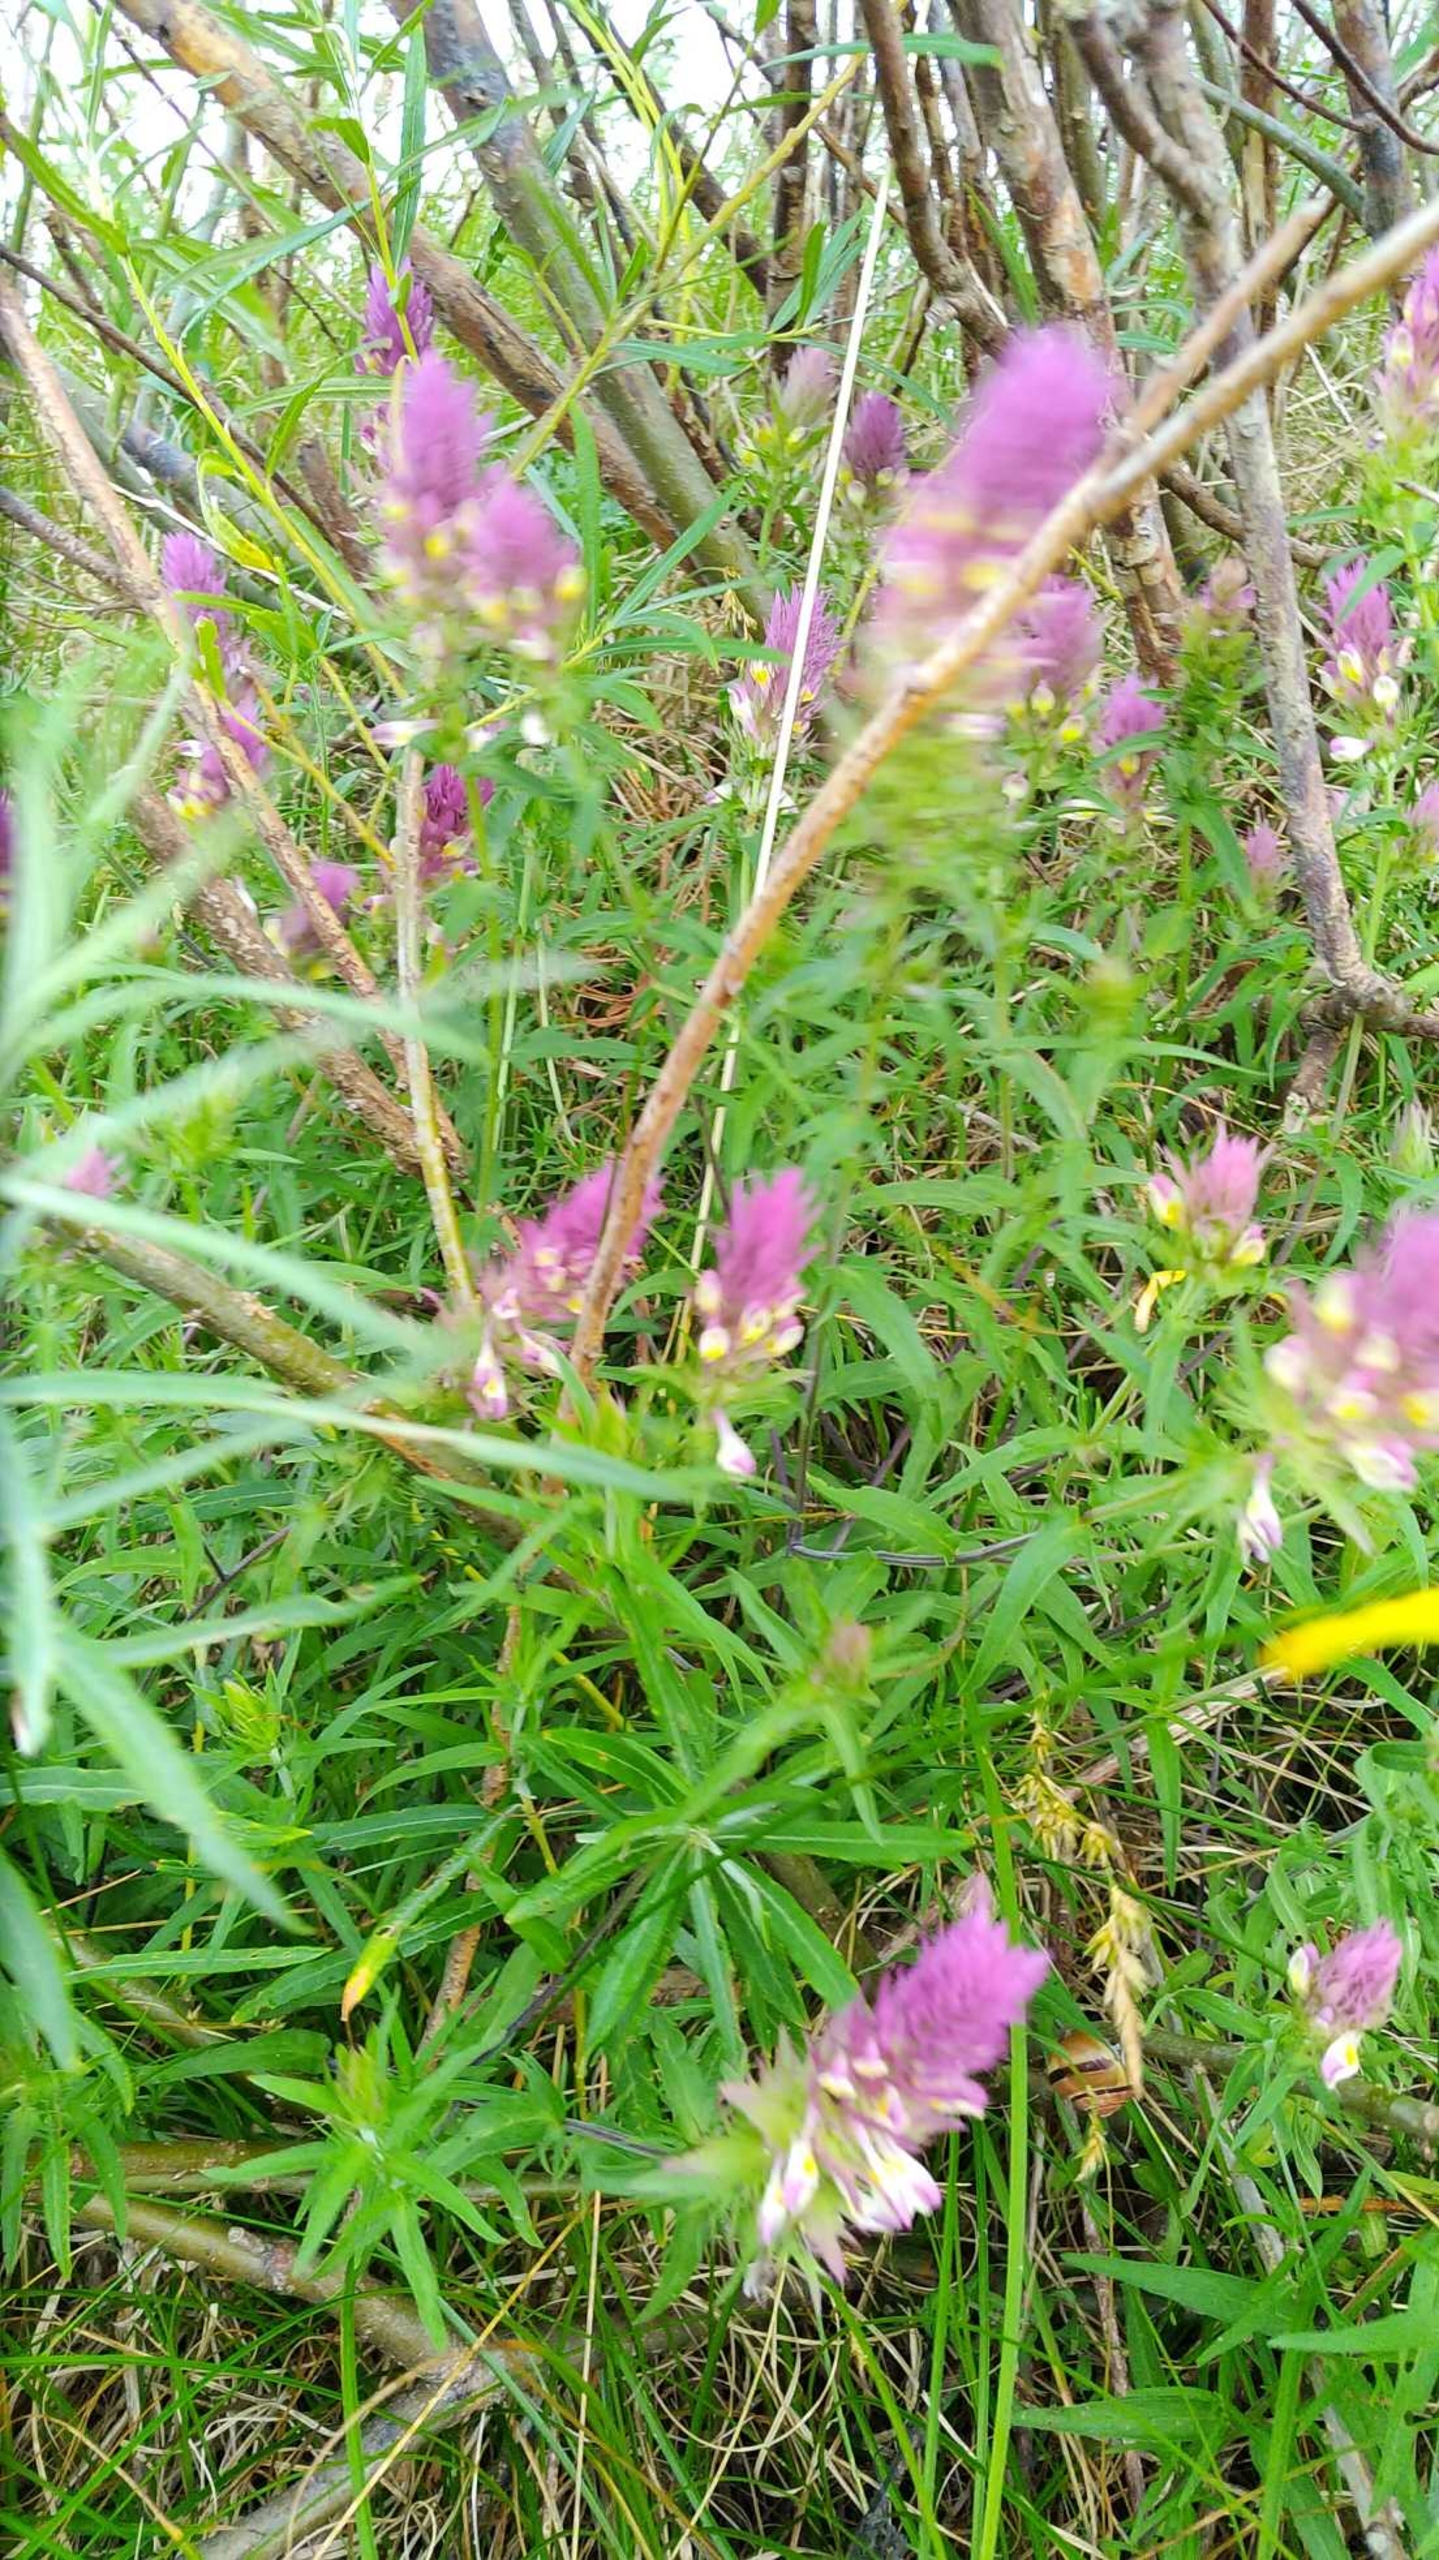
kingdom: Plantae
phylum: Tracheophyta
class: Magnoliopsida
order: Lamiales
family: Orobanchaceae
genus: Melampyrum
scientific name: Melampyrum arvense
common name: Ager-kohvede
